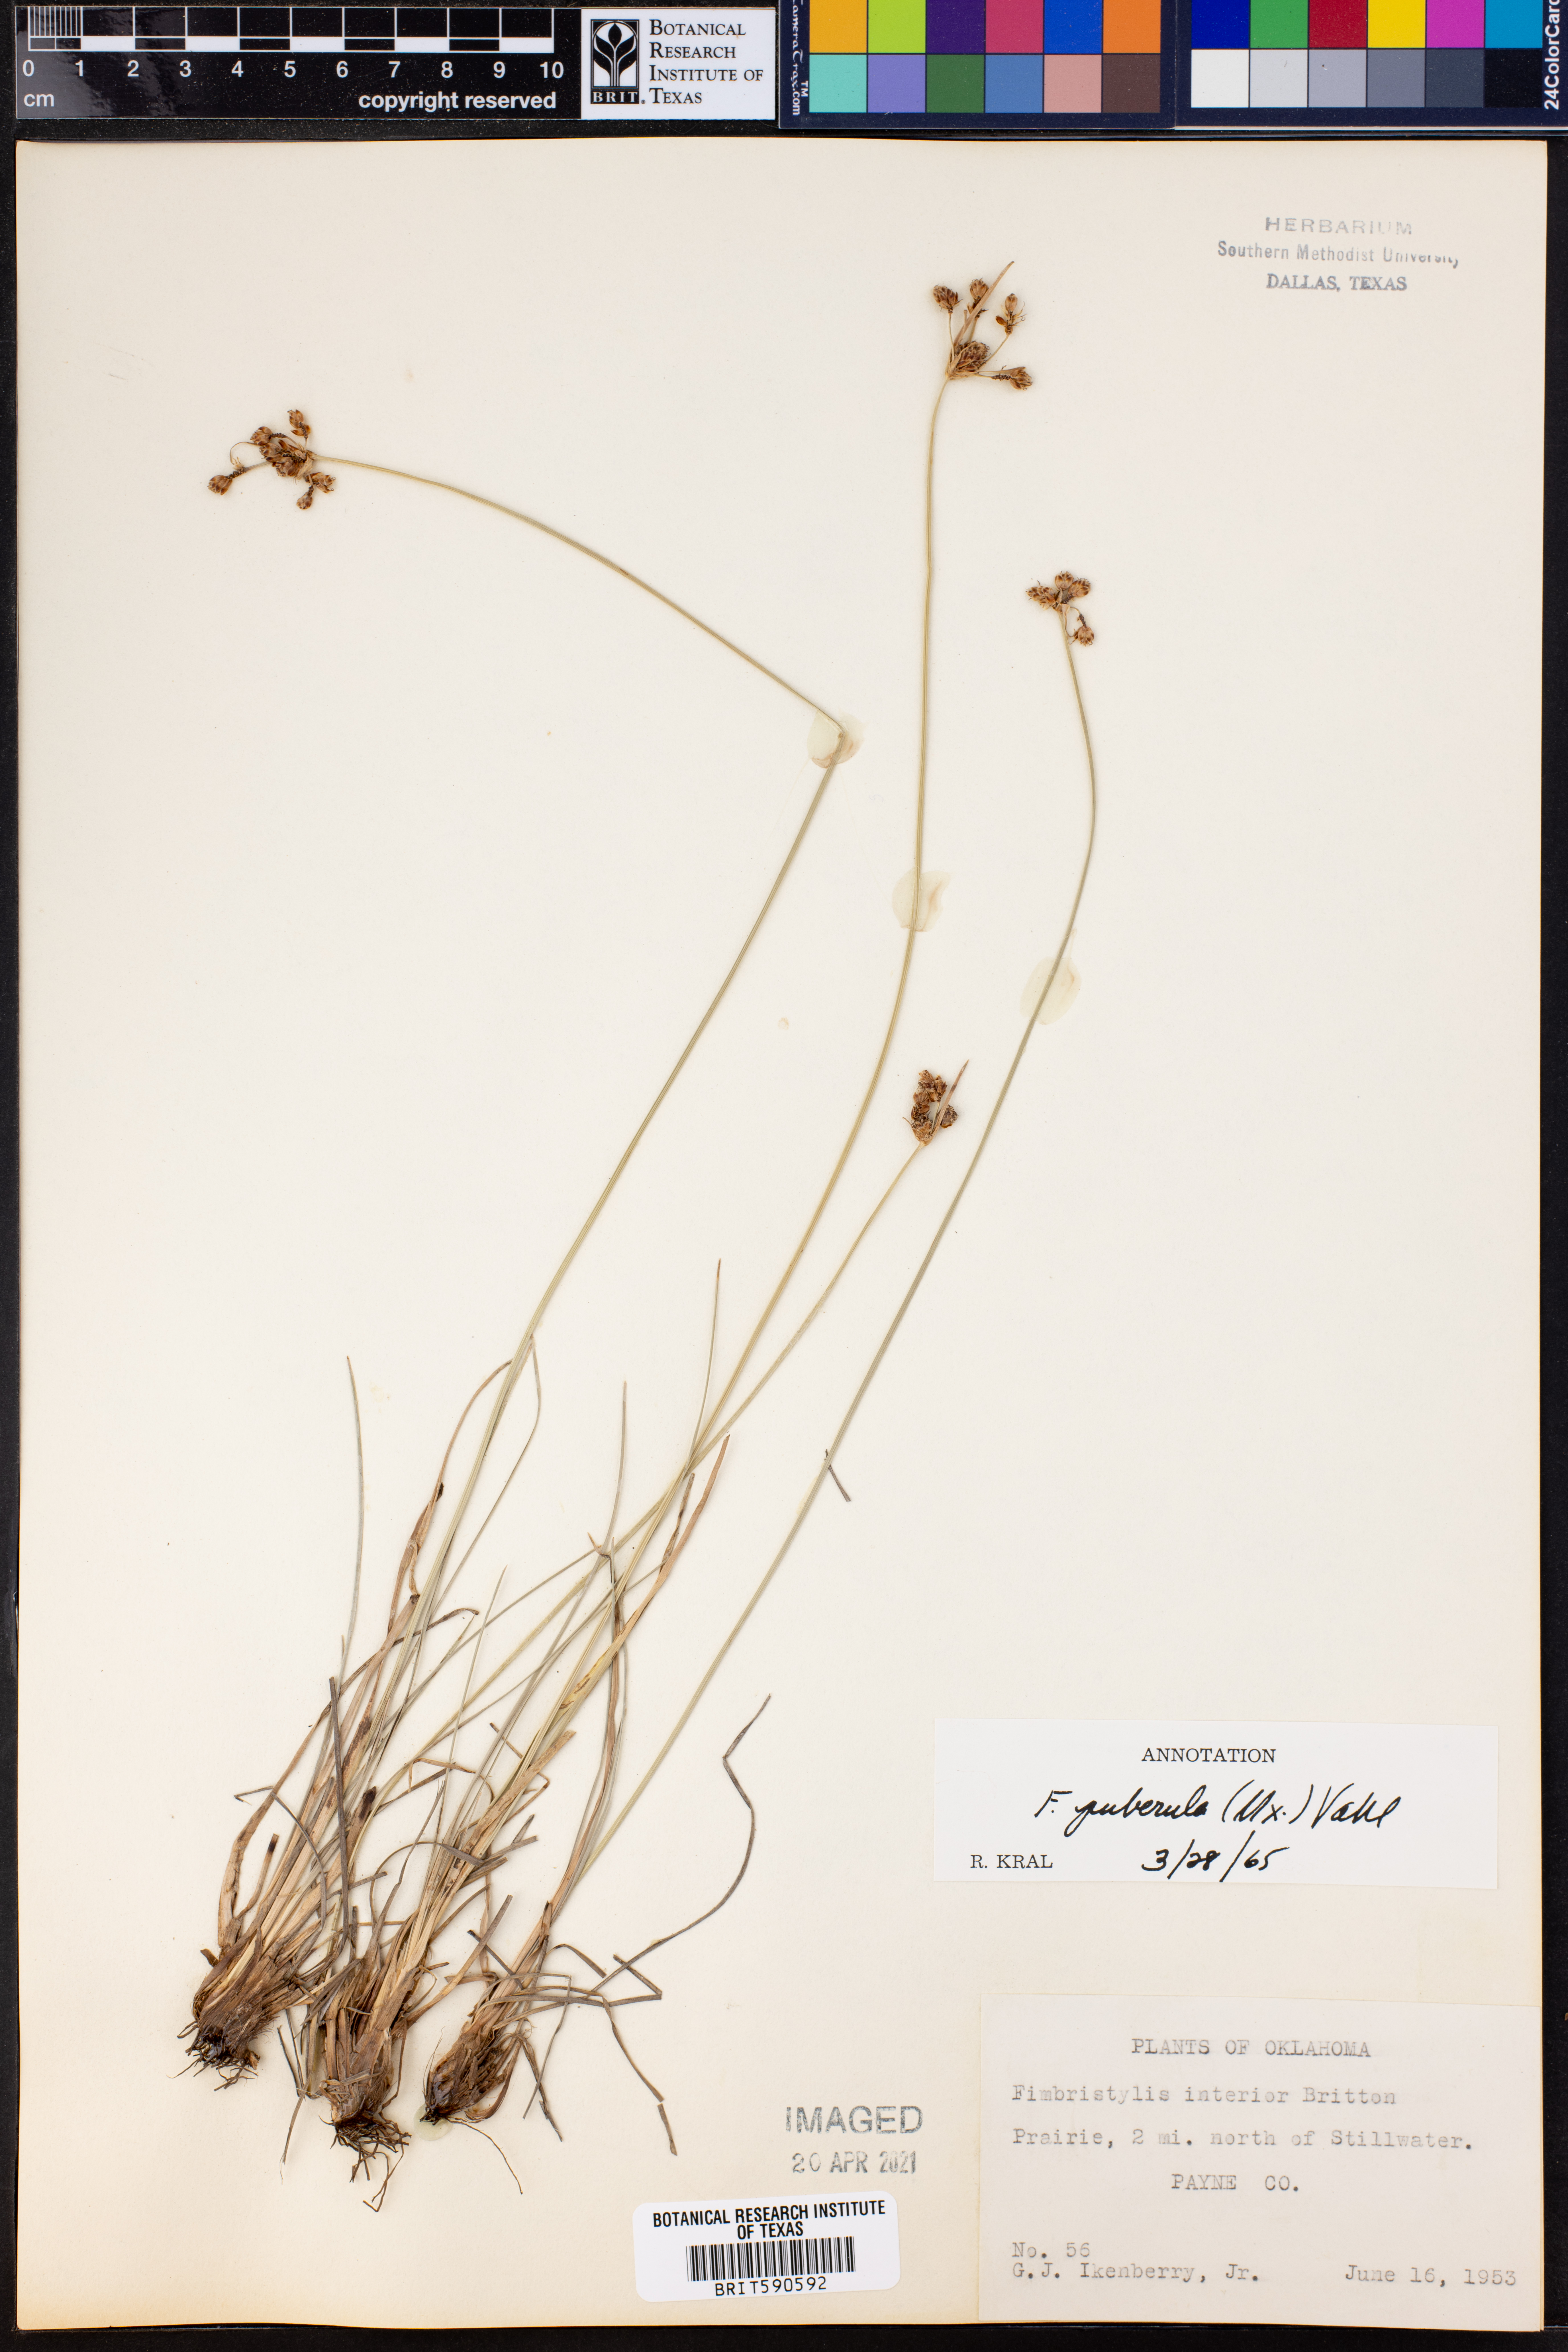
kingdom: Plantae
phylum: Tracheophyta
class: Liliopsida
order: Poales
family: Cyperaceae
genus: Fimbristylis
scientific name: Fimbristylis puberula
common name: Hairy fimbristylis
